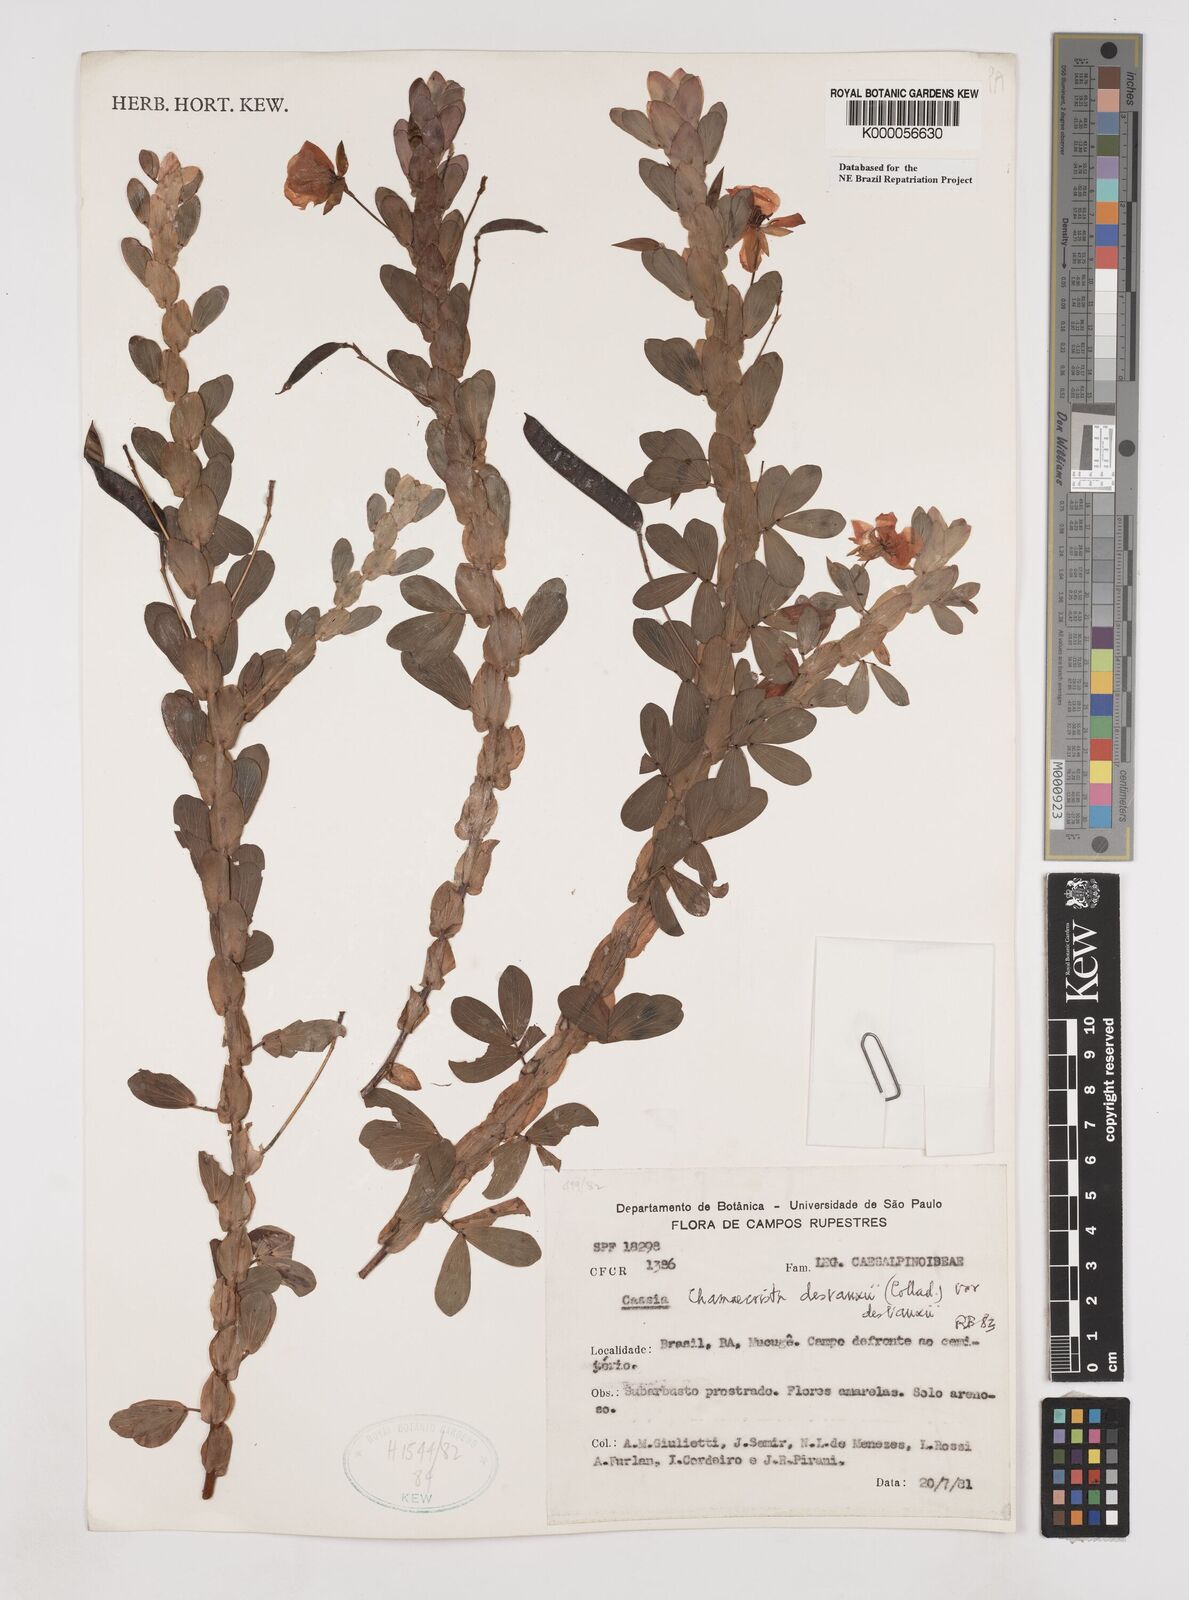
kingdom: Plantae
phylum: Tracheophyta
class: Magnoliopsida
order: Fabales
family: Fabaceae
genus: Chamaecrista
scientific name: Chamaecrista desvauxii
